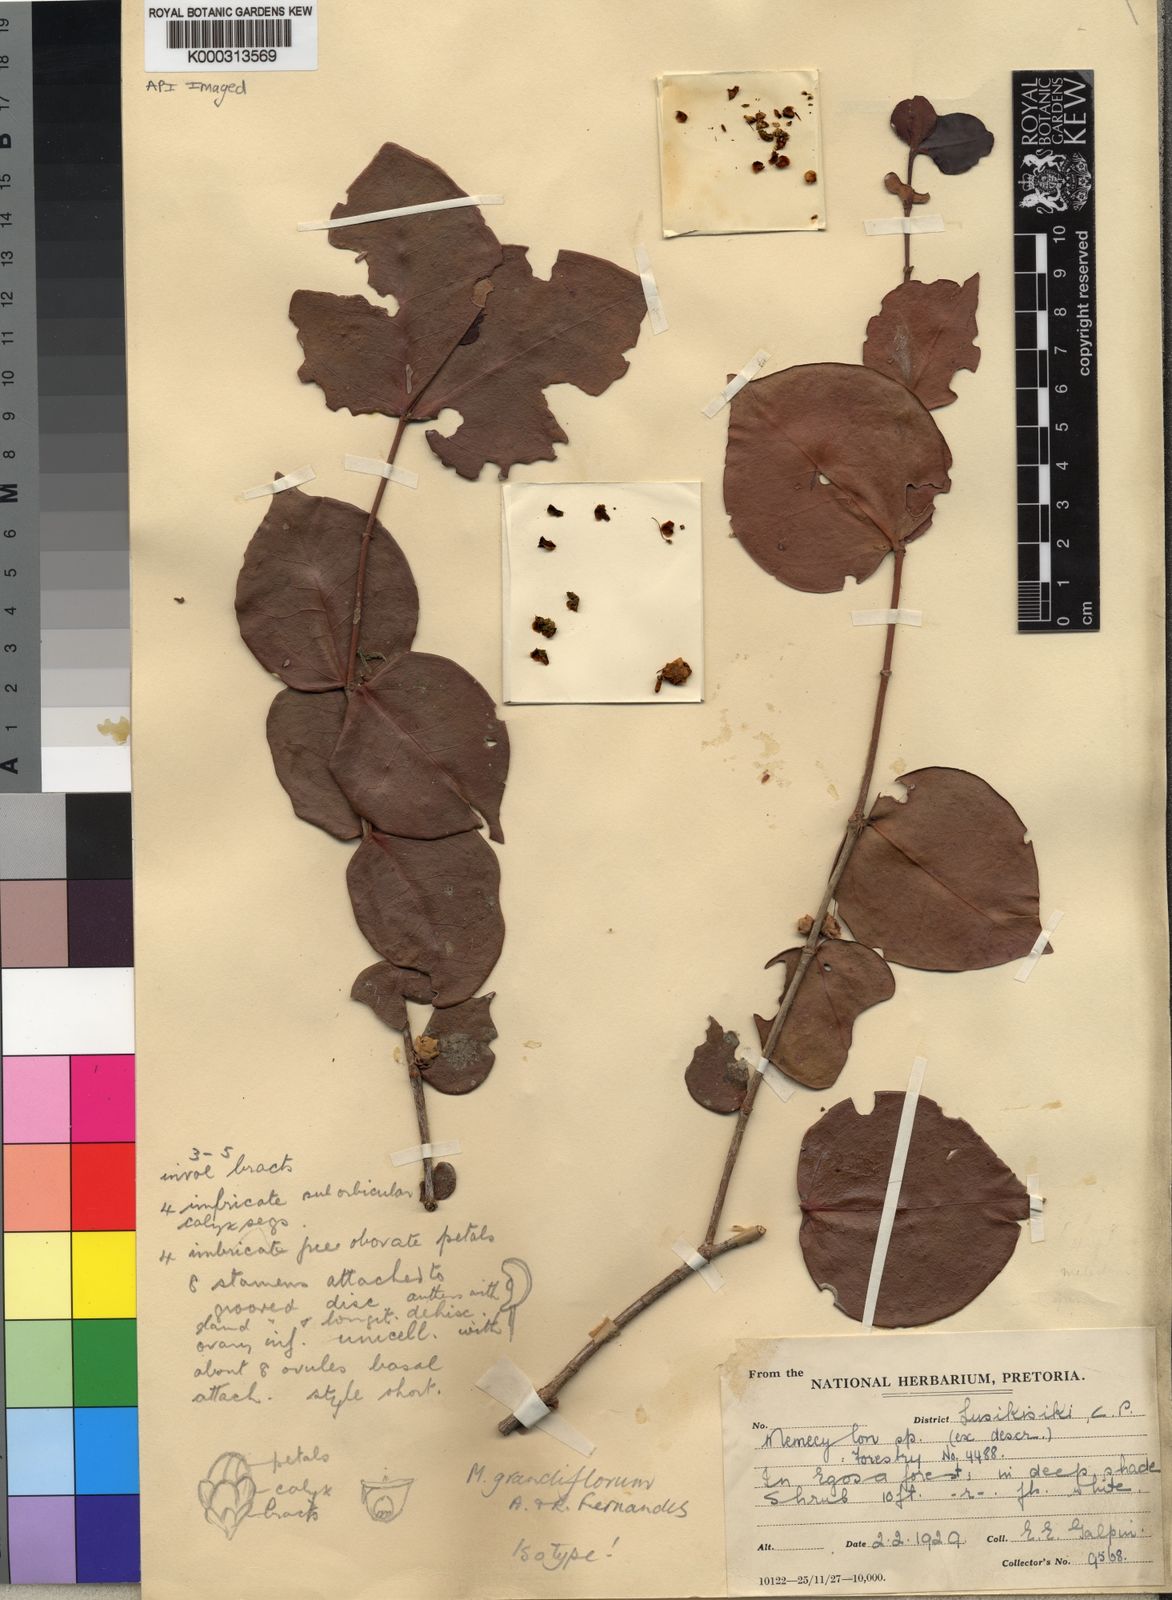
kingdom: Plantae
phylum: Tracheophyta
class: Magnoliopsida
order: Myrtales
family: Melastomataceae
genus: Memecylon
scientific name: Memecylon bachmannii
